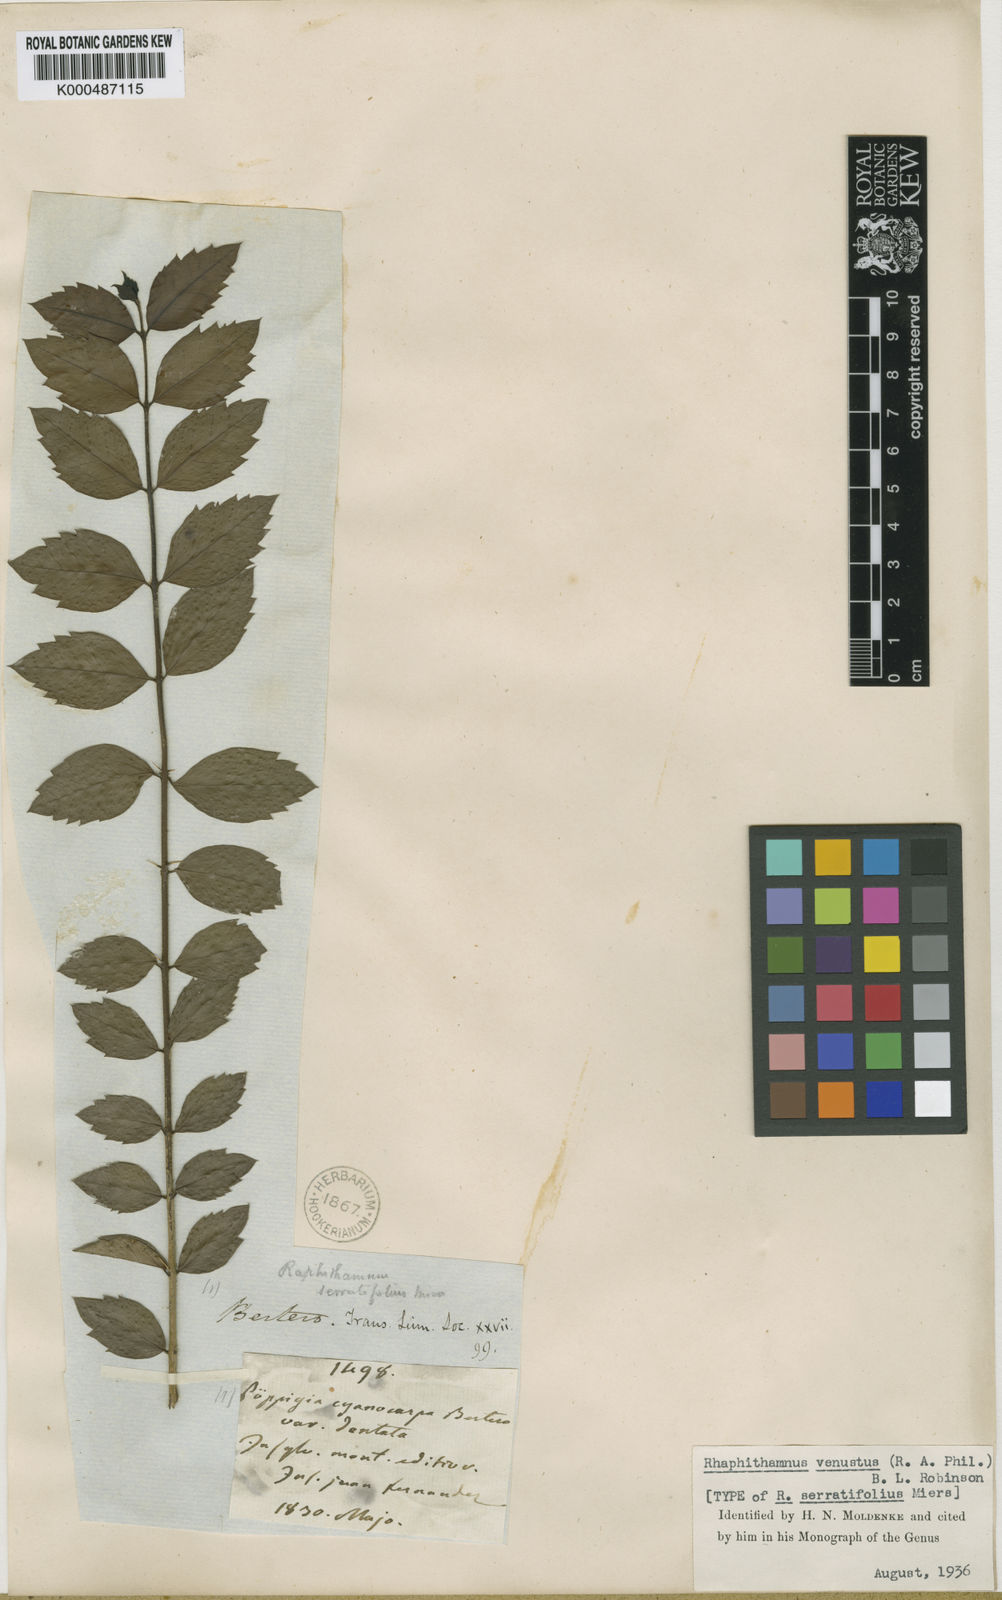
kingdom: Plantae
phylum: Tracheophyta
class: Magnoliopsida
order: Lamiales
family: Verbenaceae
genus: Rhaphithamnus
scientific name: Rhaphithamnus venustus
